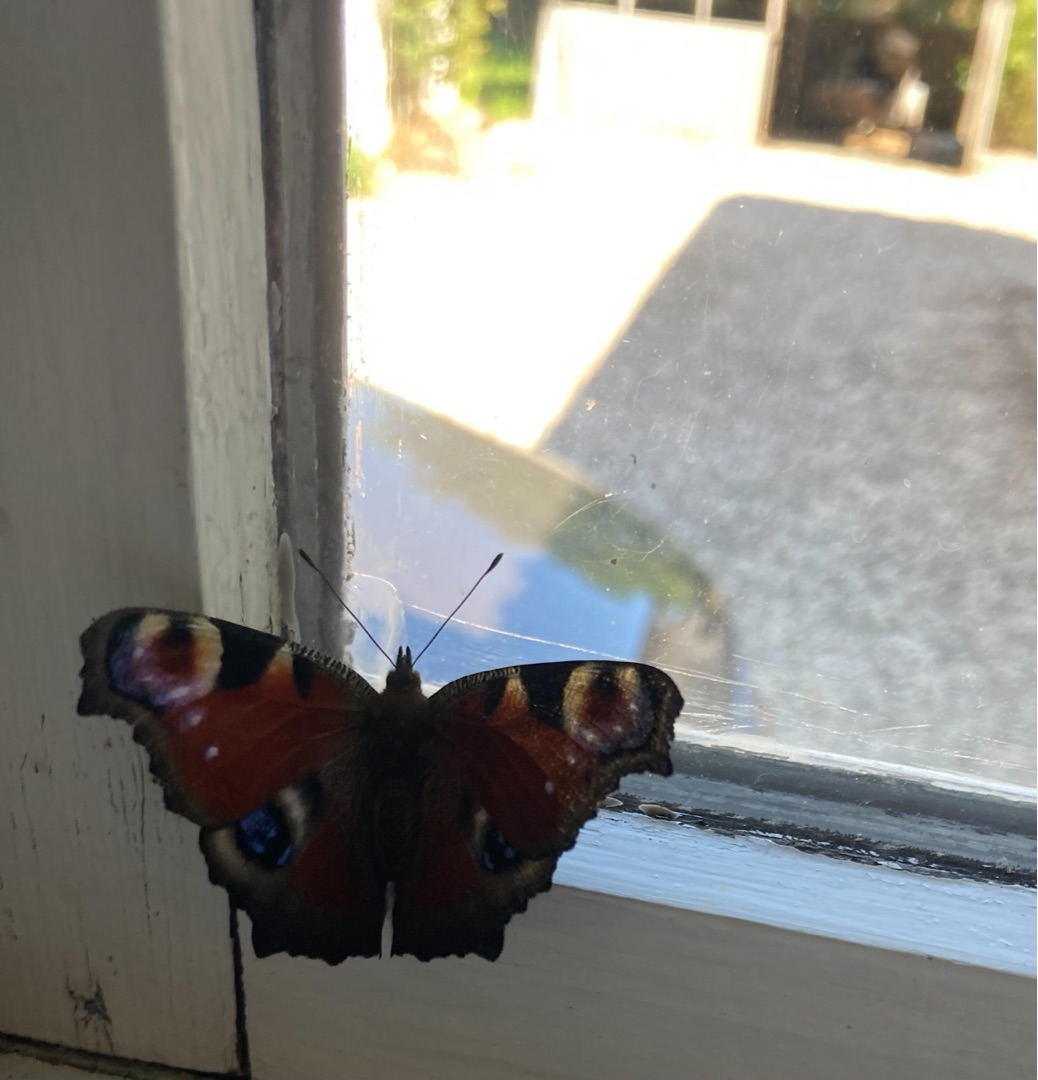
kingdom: Animalia
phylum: Arthropoda
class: Insecta
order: Lepidoptera
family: Nymphalidae
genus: Aglais
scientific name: Aglais io
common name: Dagpåfugleøje
